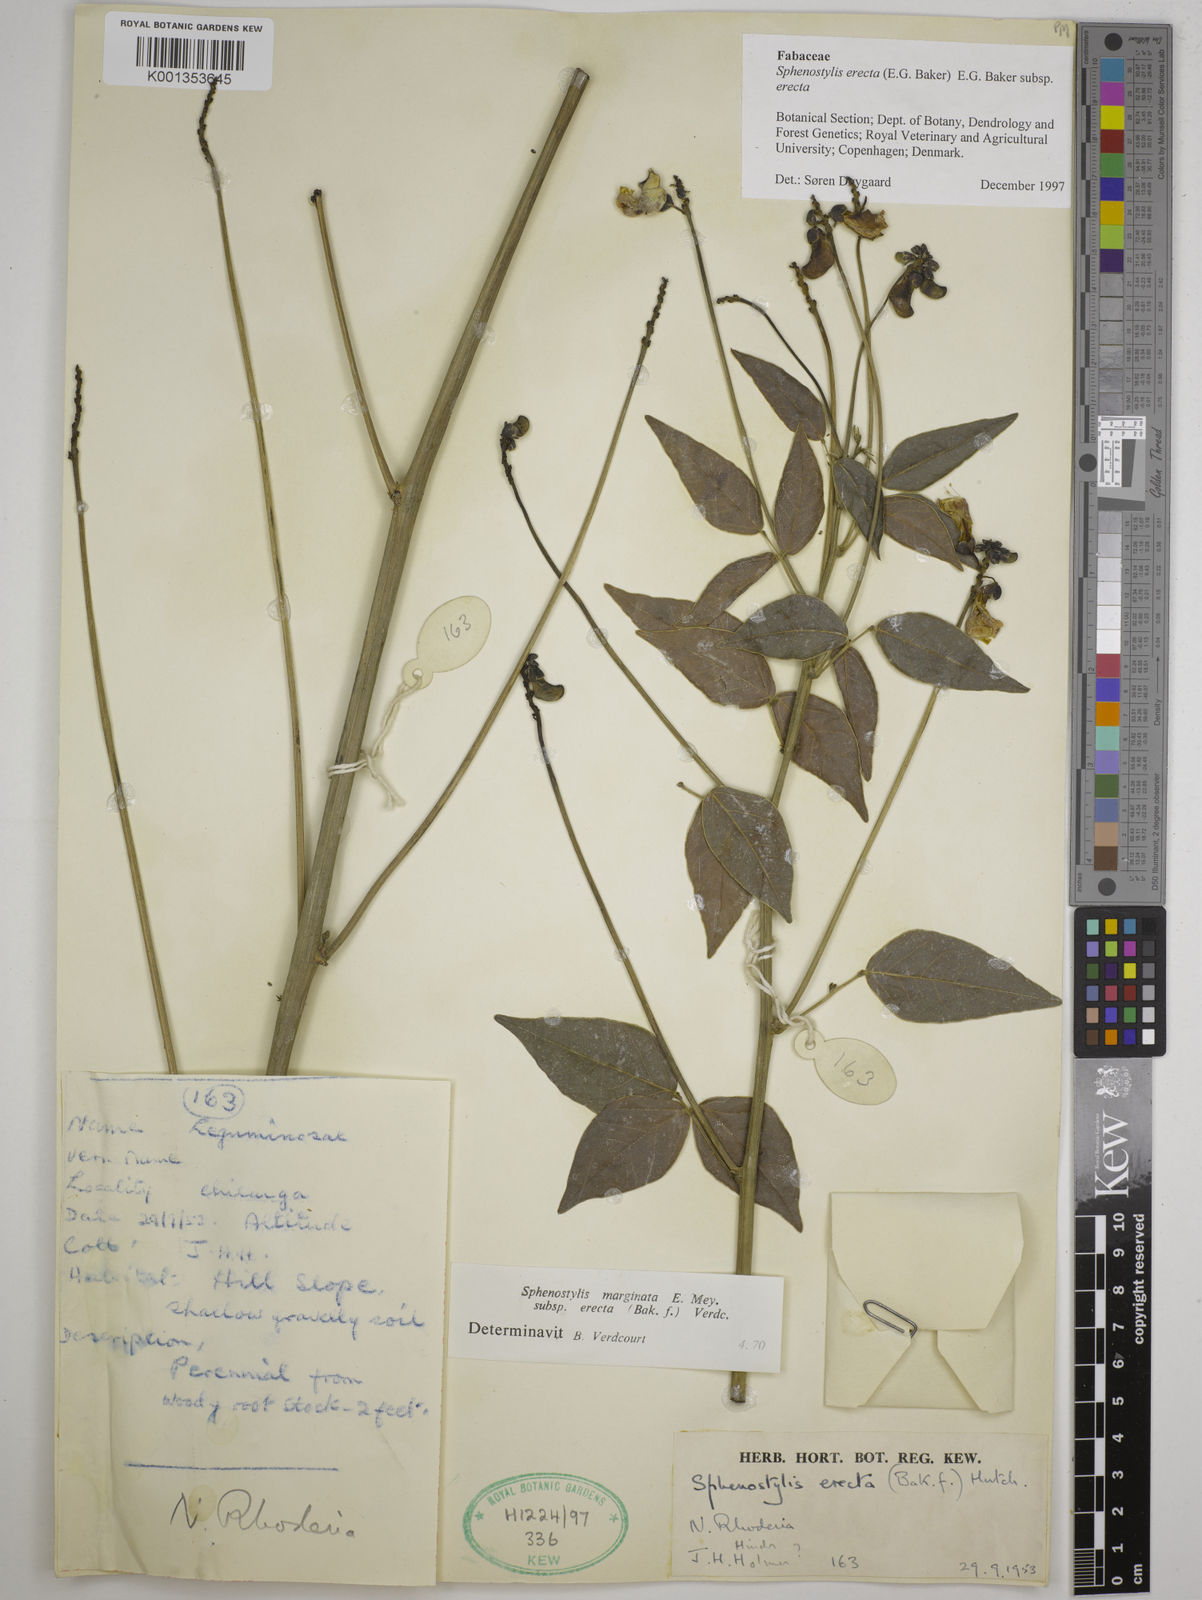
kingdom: Plantae
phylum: Tracheophyta
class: Magnoliopsida
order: Fabales
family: Fabaceae
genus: Sphenostylis
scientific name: Sphenostylis erecta
